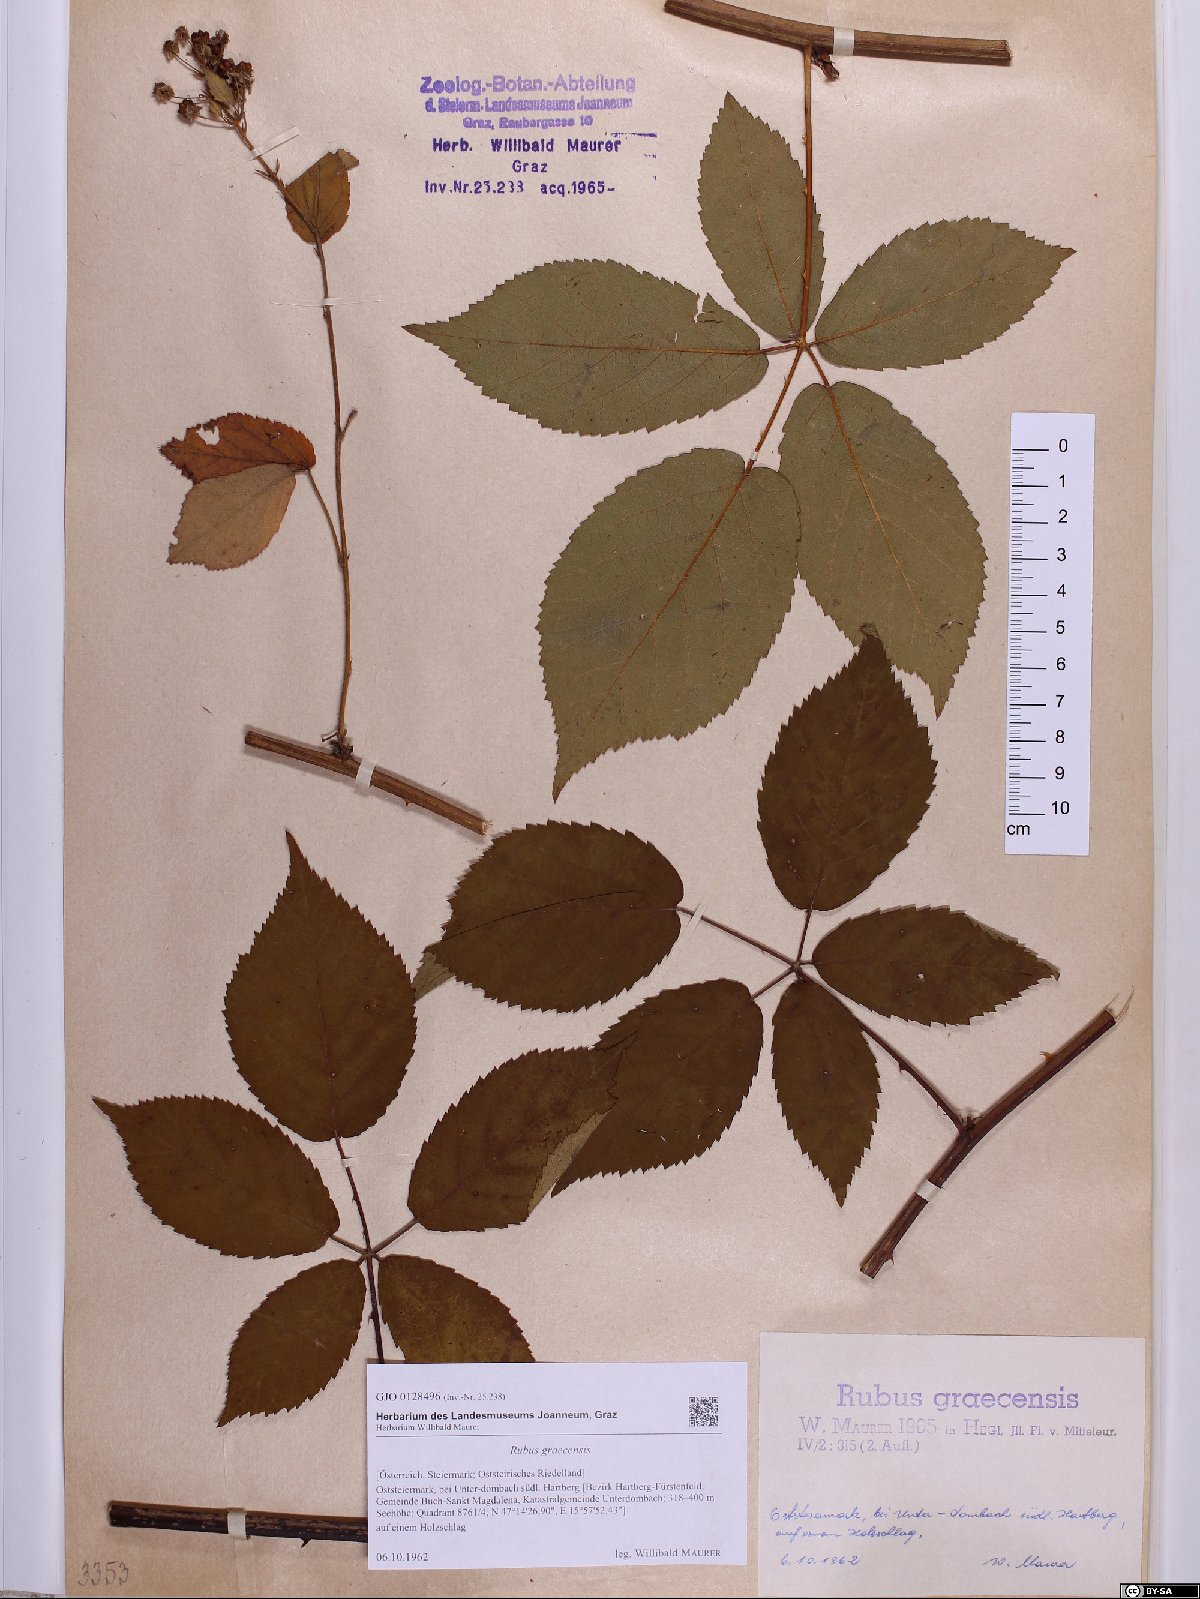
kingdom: Plantae
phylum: Tracheophyta
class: Magnoliopsida
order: Rosales
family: Rosaceae
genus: Rubus
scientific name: Rubus graecensis
